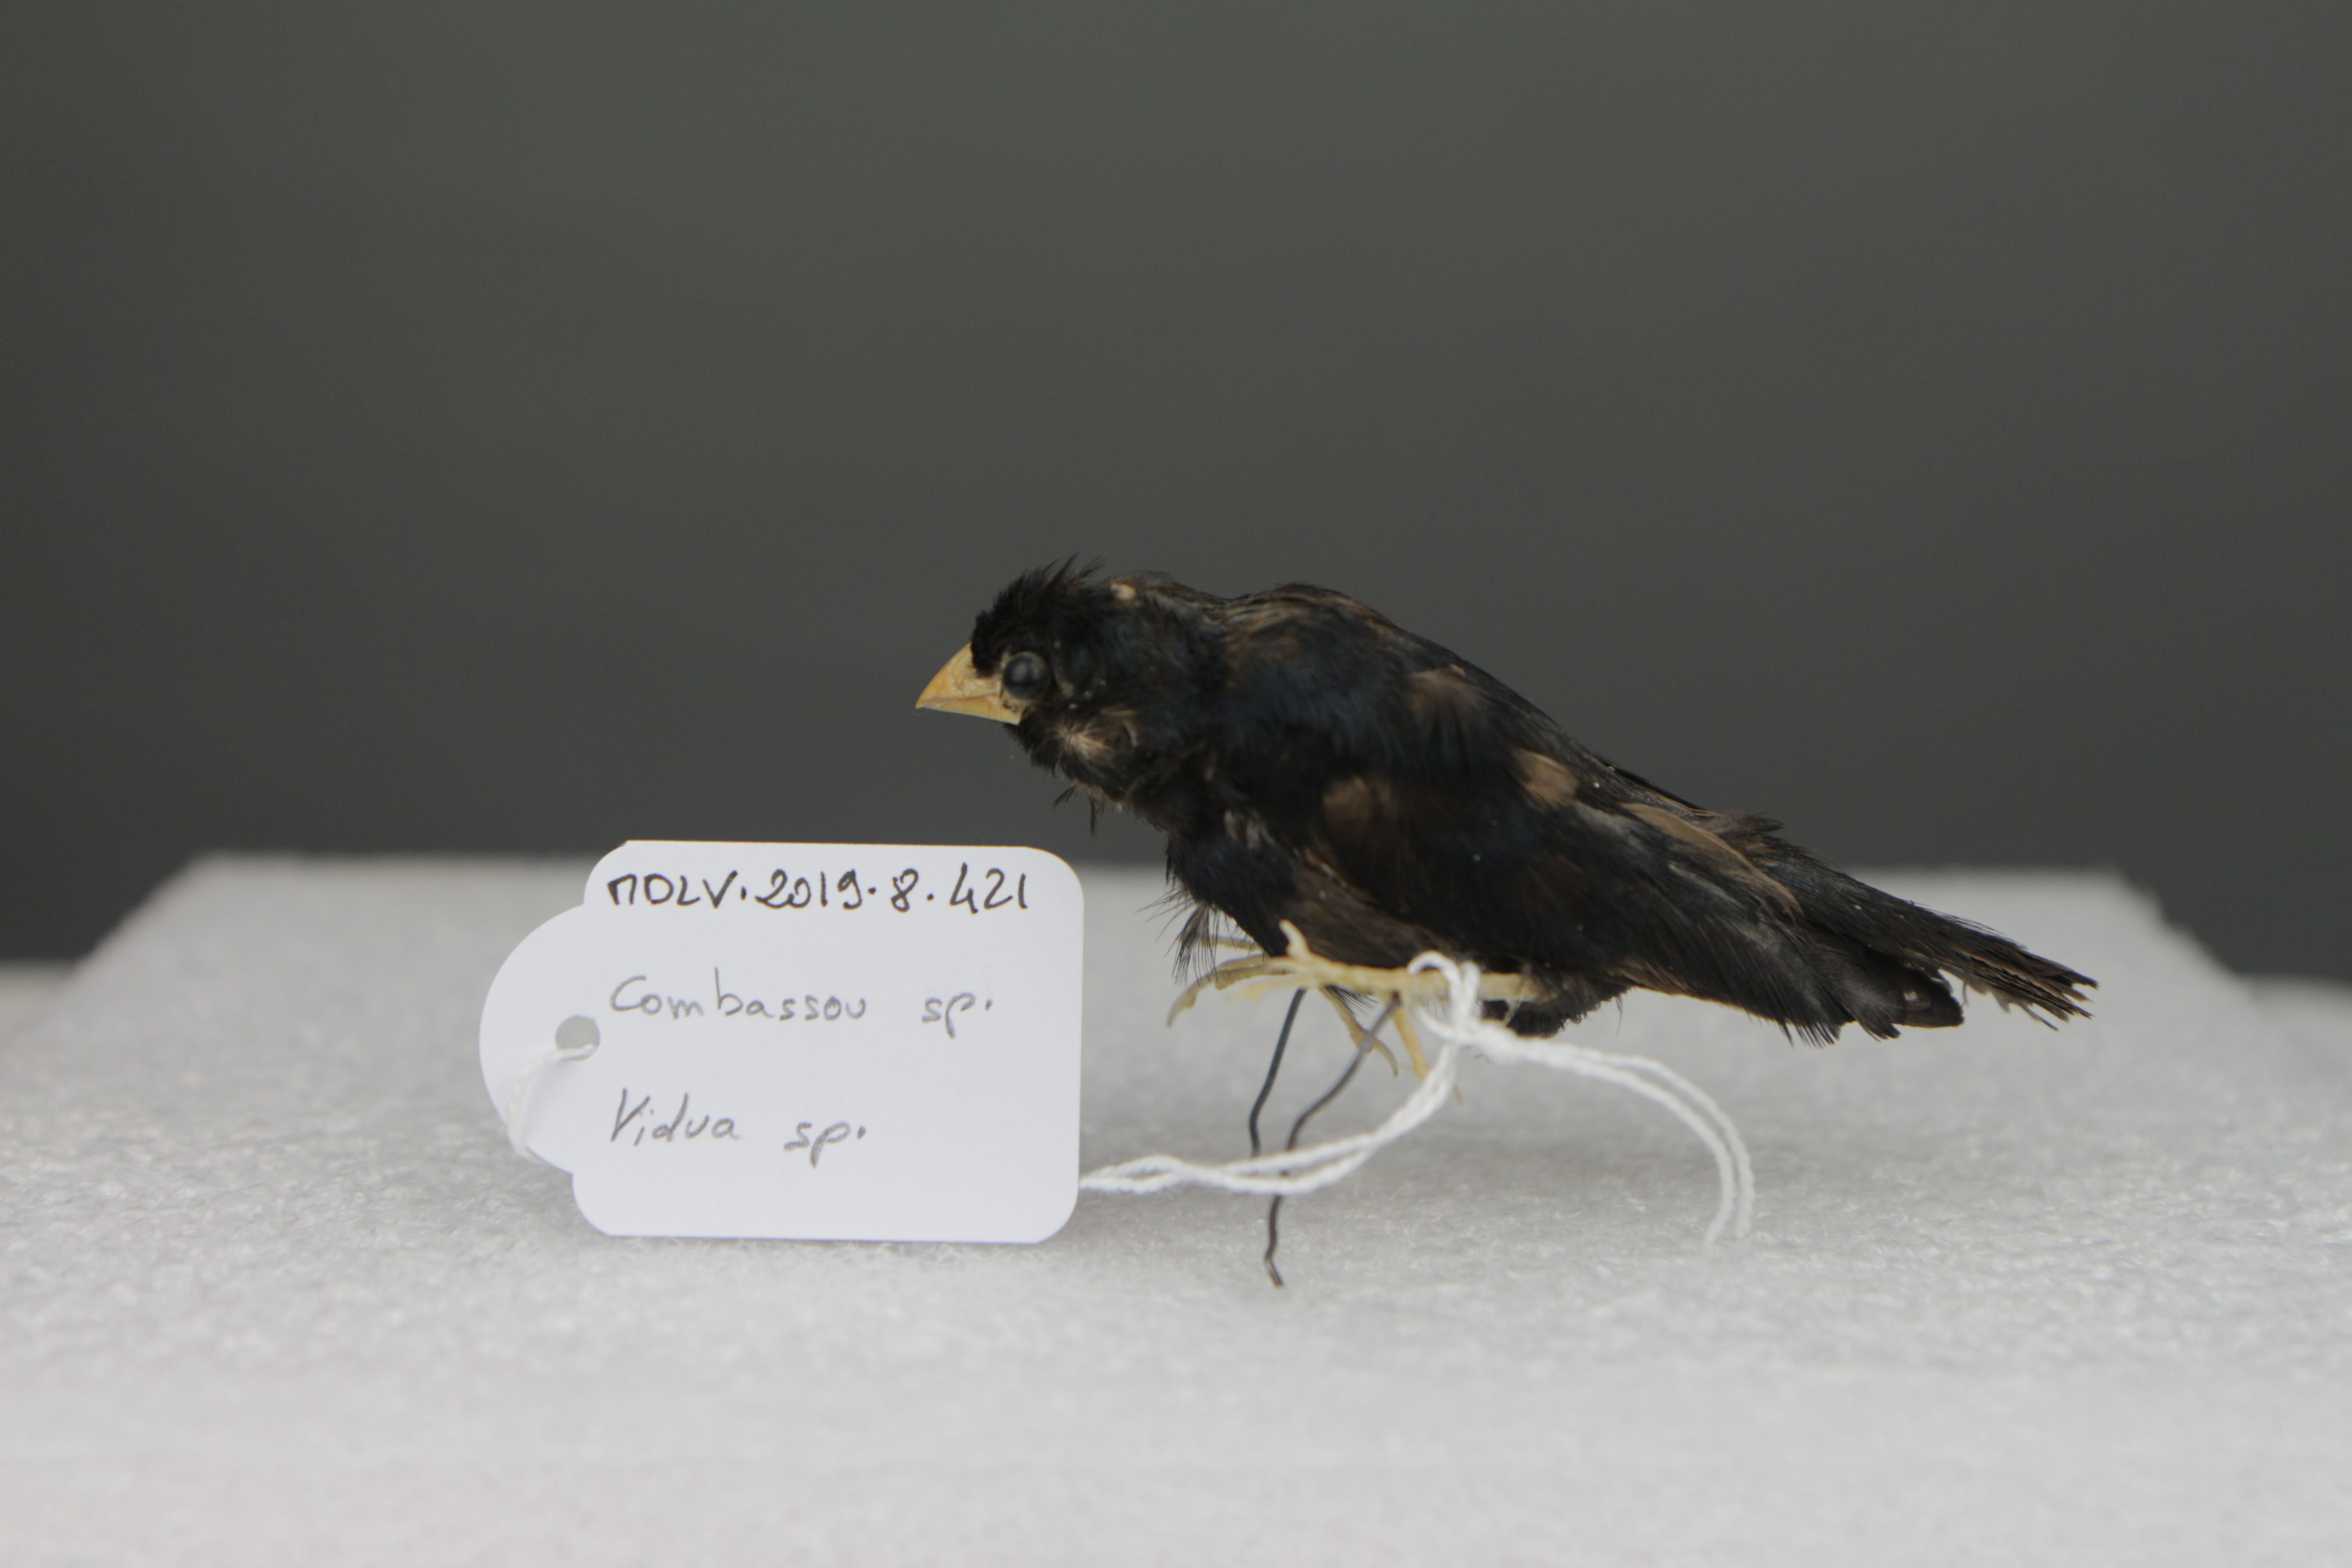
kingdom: Animalia
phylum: Chordata
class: Aves
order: Passeriformes
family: Viduidae
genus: Vidua
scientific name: Vidua
